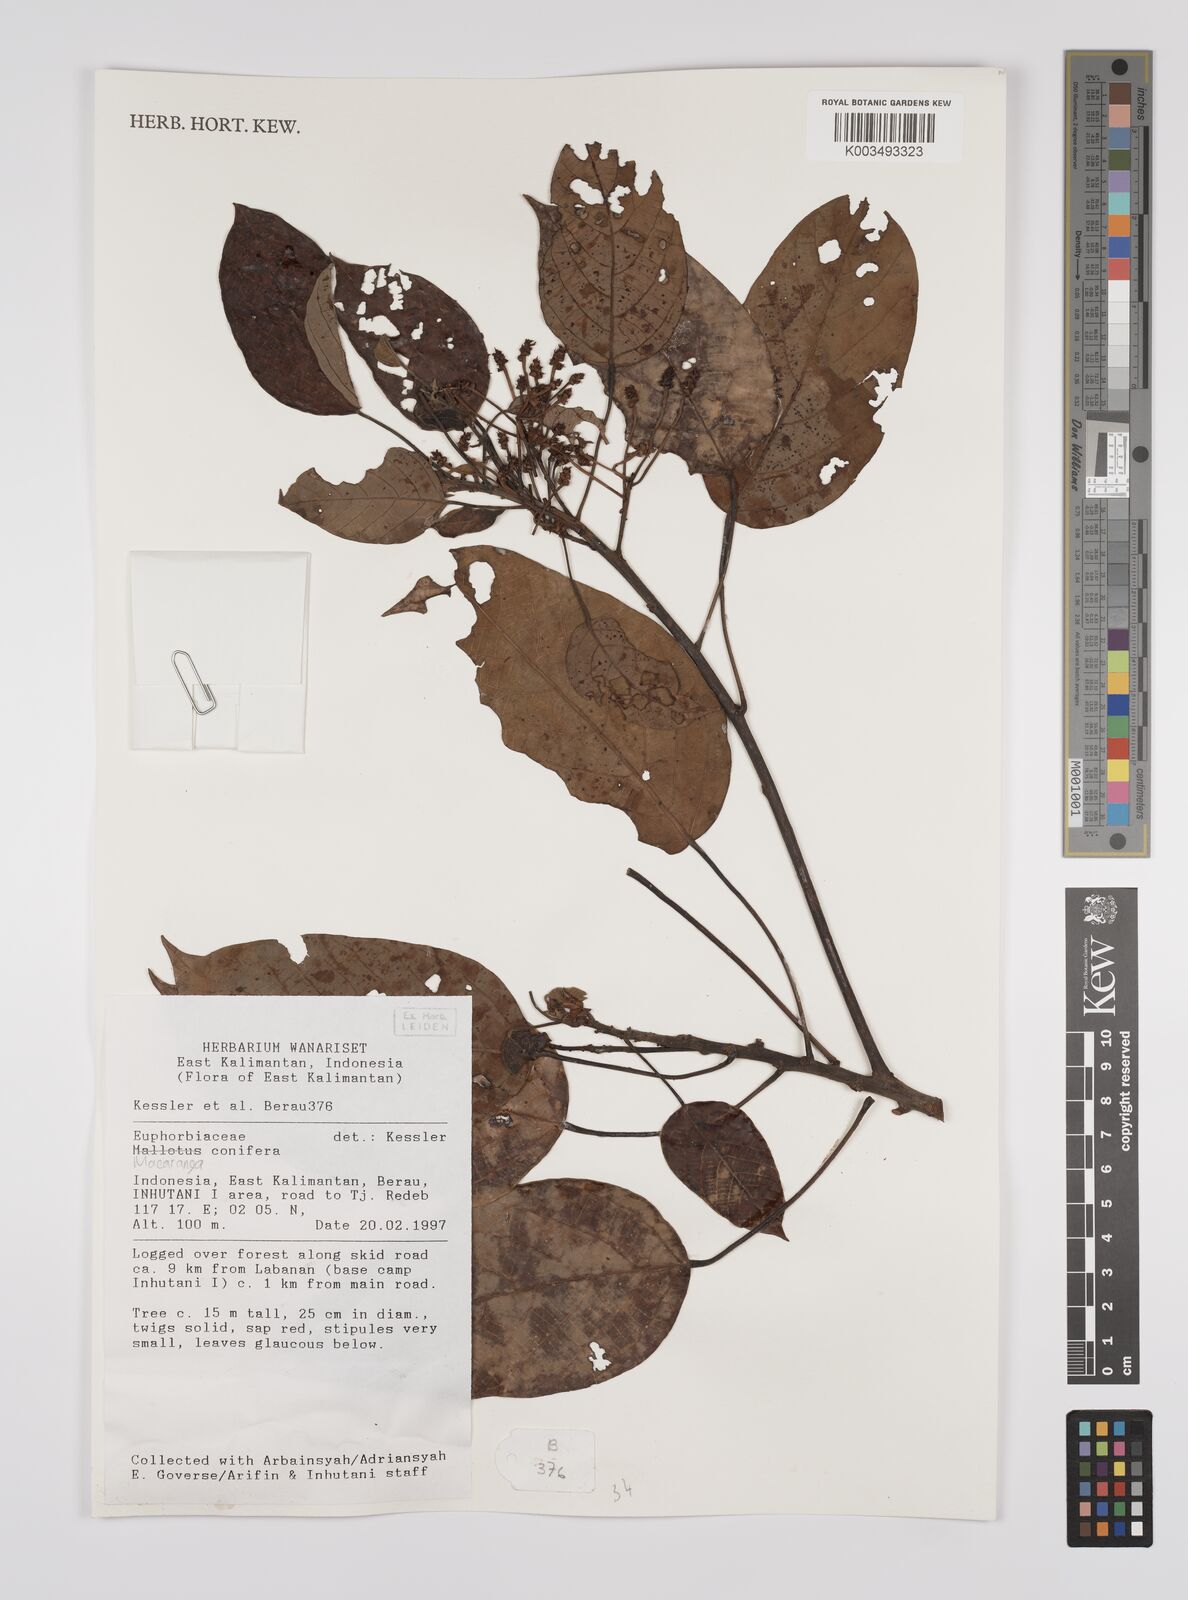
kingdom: Plantae
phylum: Tracheophyta
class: Magnoliopsida
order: Malpighiales
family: Euphorbiaceae
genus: Macaranga
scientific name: Macaranga conifera
